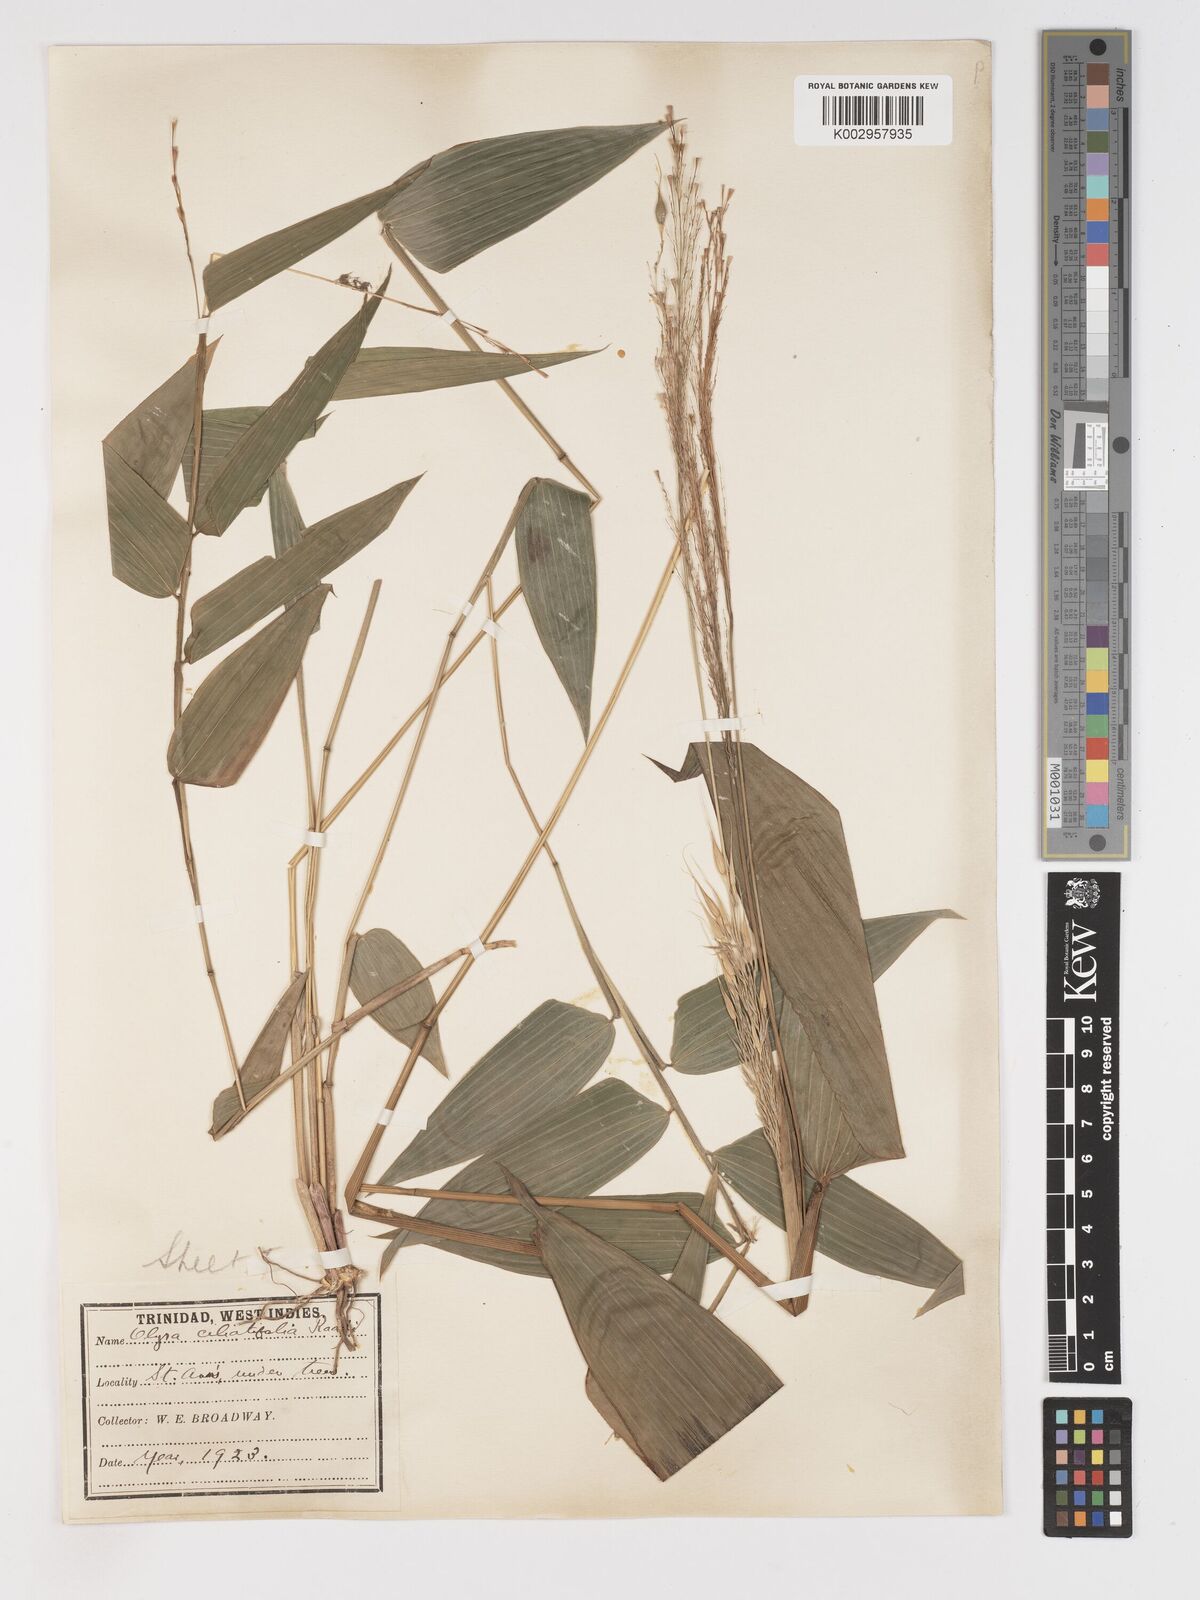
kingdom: Plantae
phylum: Tracheophyta
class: Liliopsida
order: Poales
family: Poaceae
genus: Olyra
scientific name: Olyra ciliatifolia
